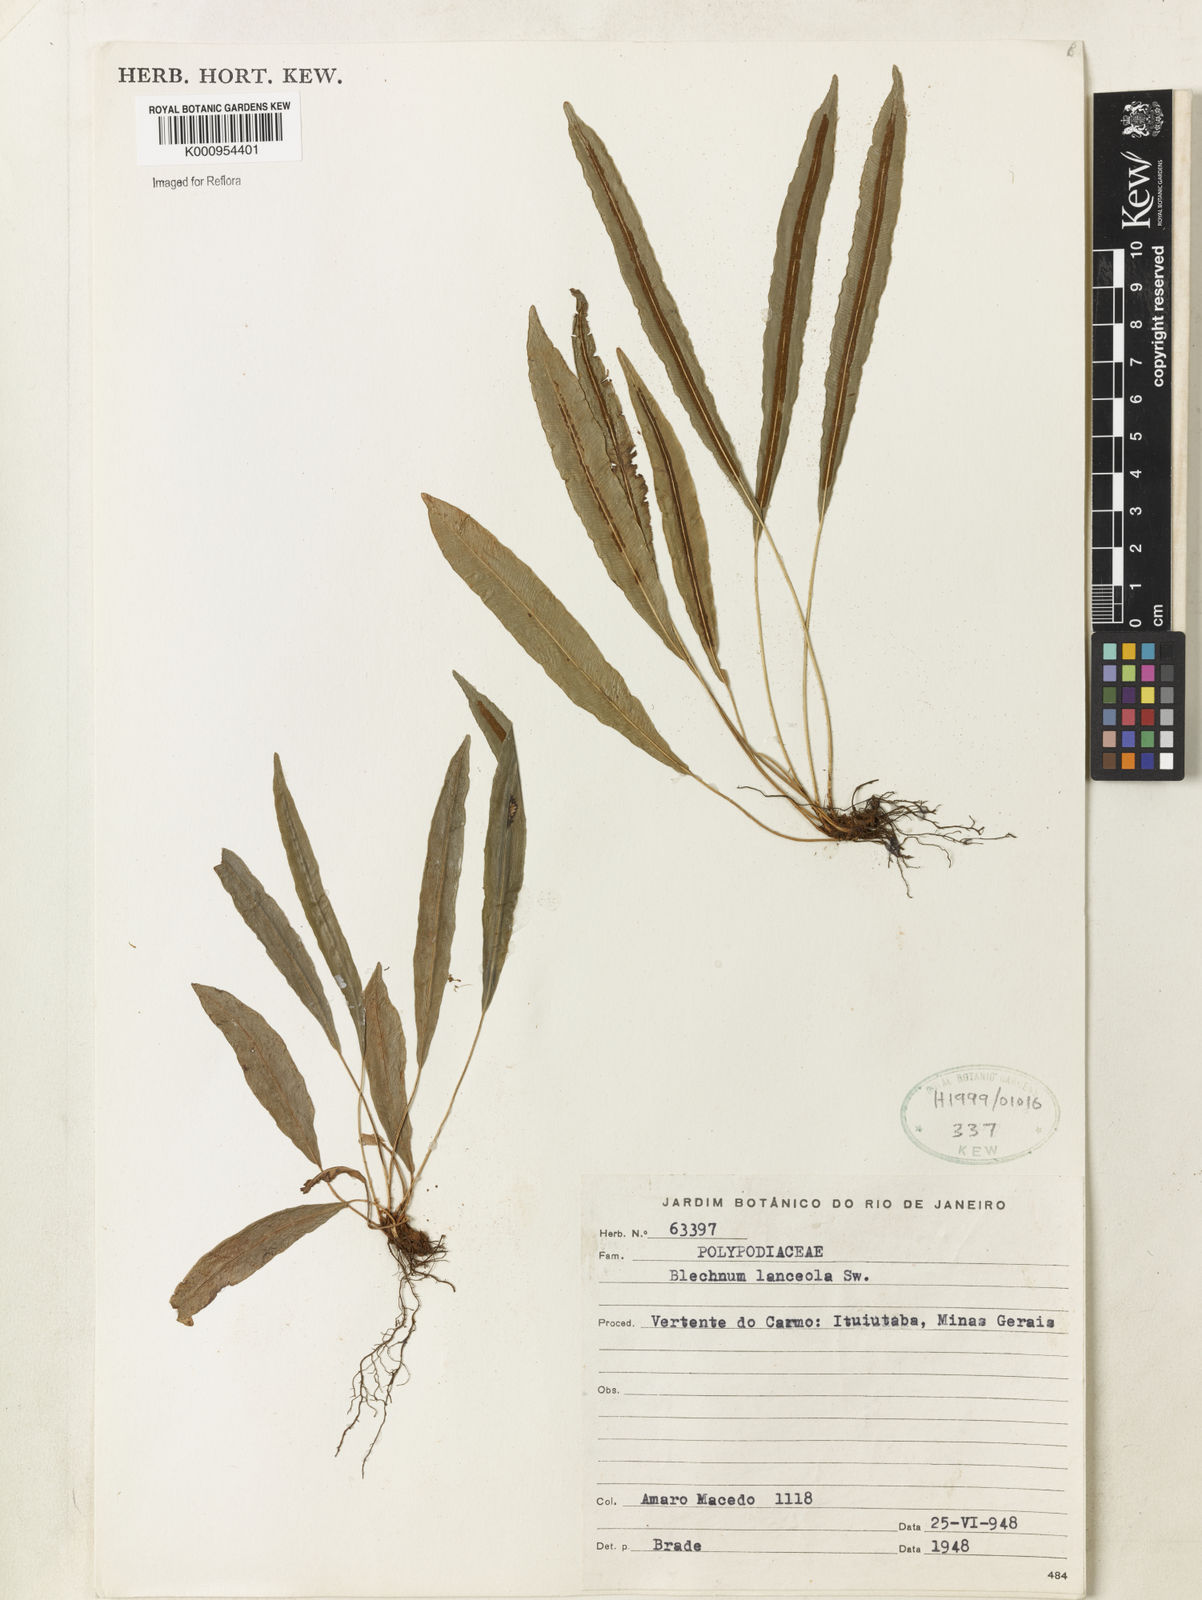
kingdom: Plantae
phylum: Tracheophyta
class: Polypodiopsida
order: Polypodiales
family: Blechnaceae
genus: Blechnum
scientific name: Blechnum lanceola
